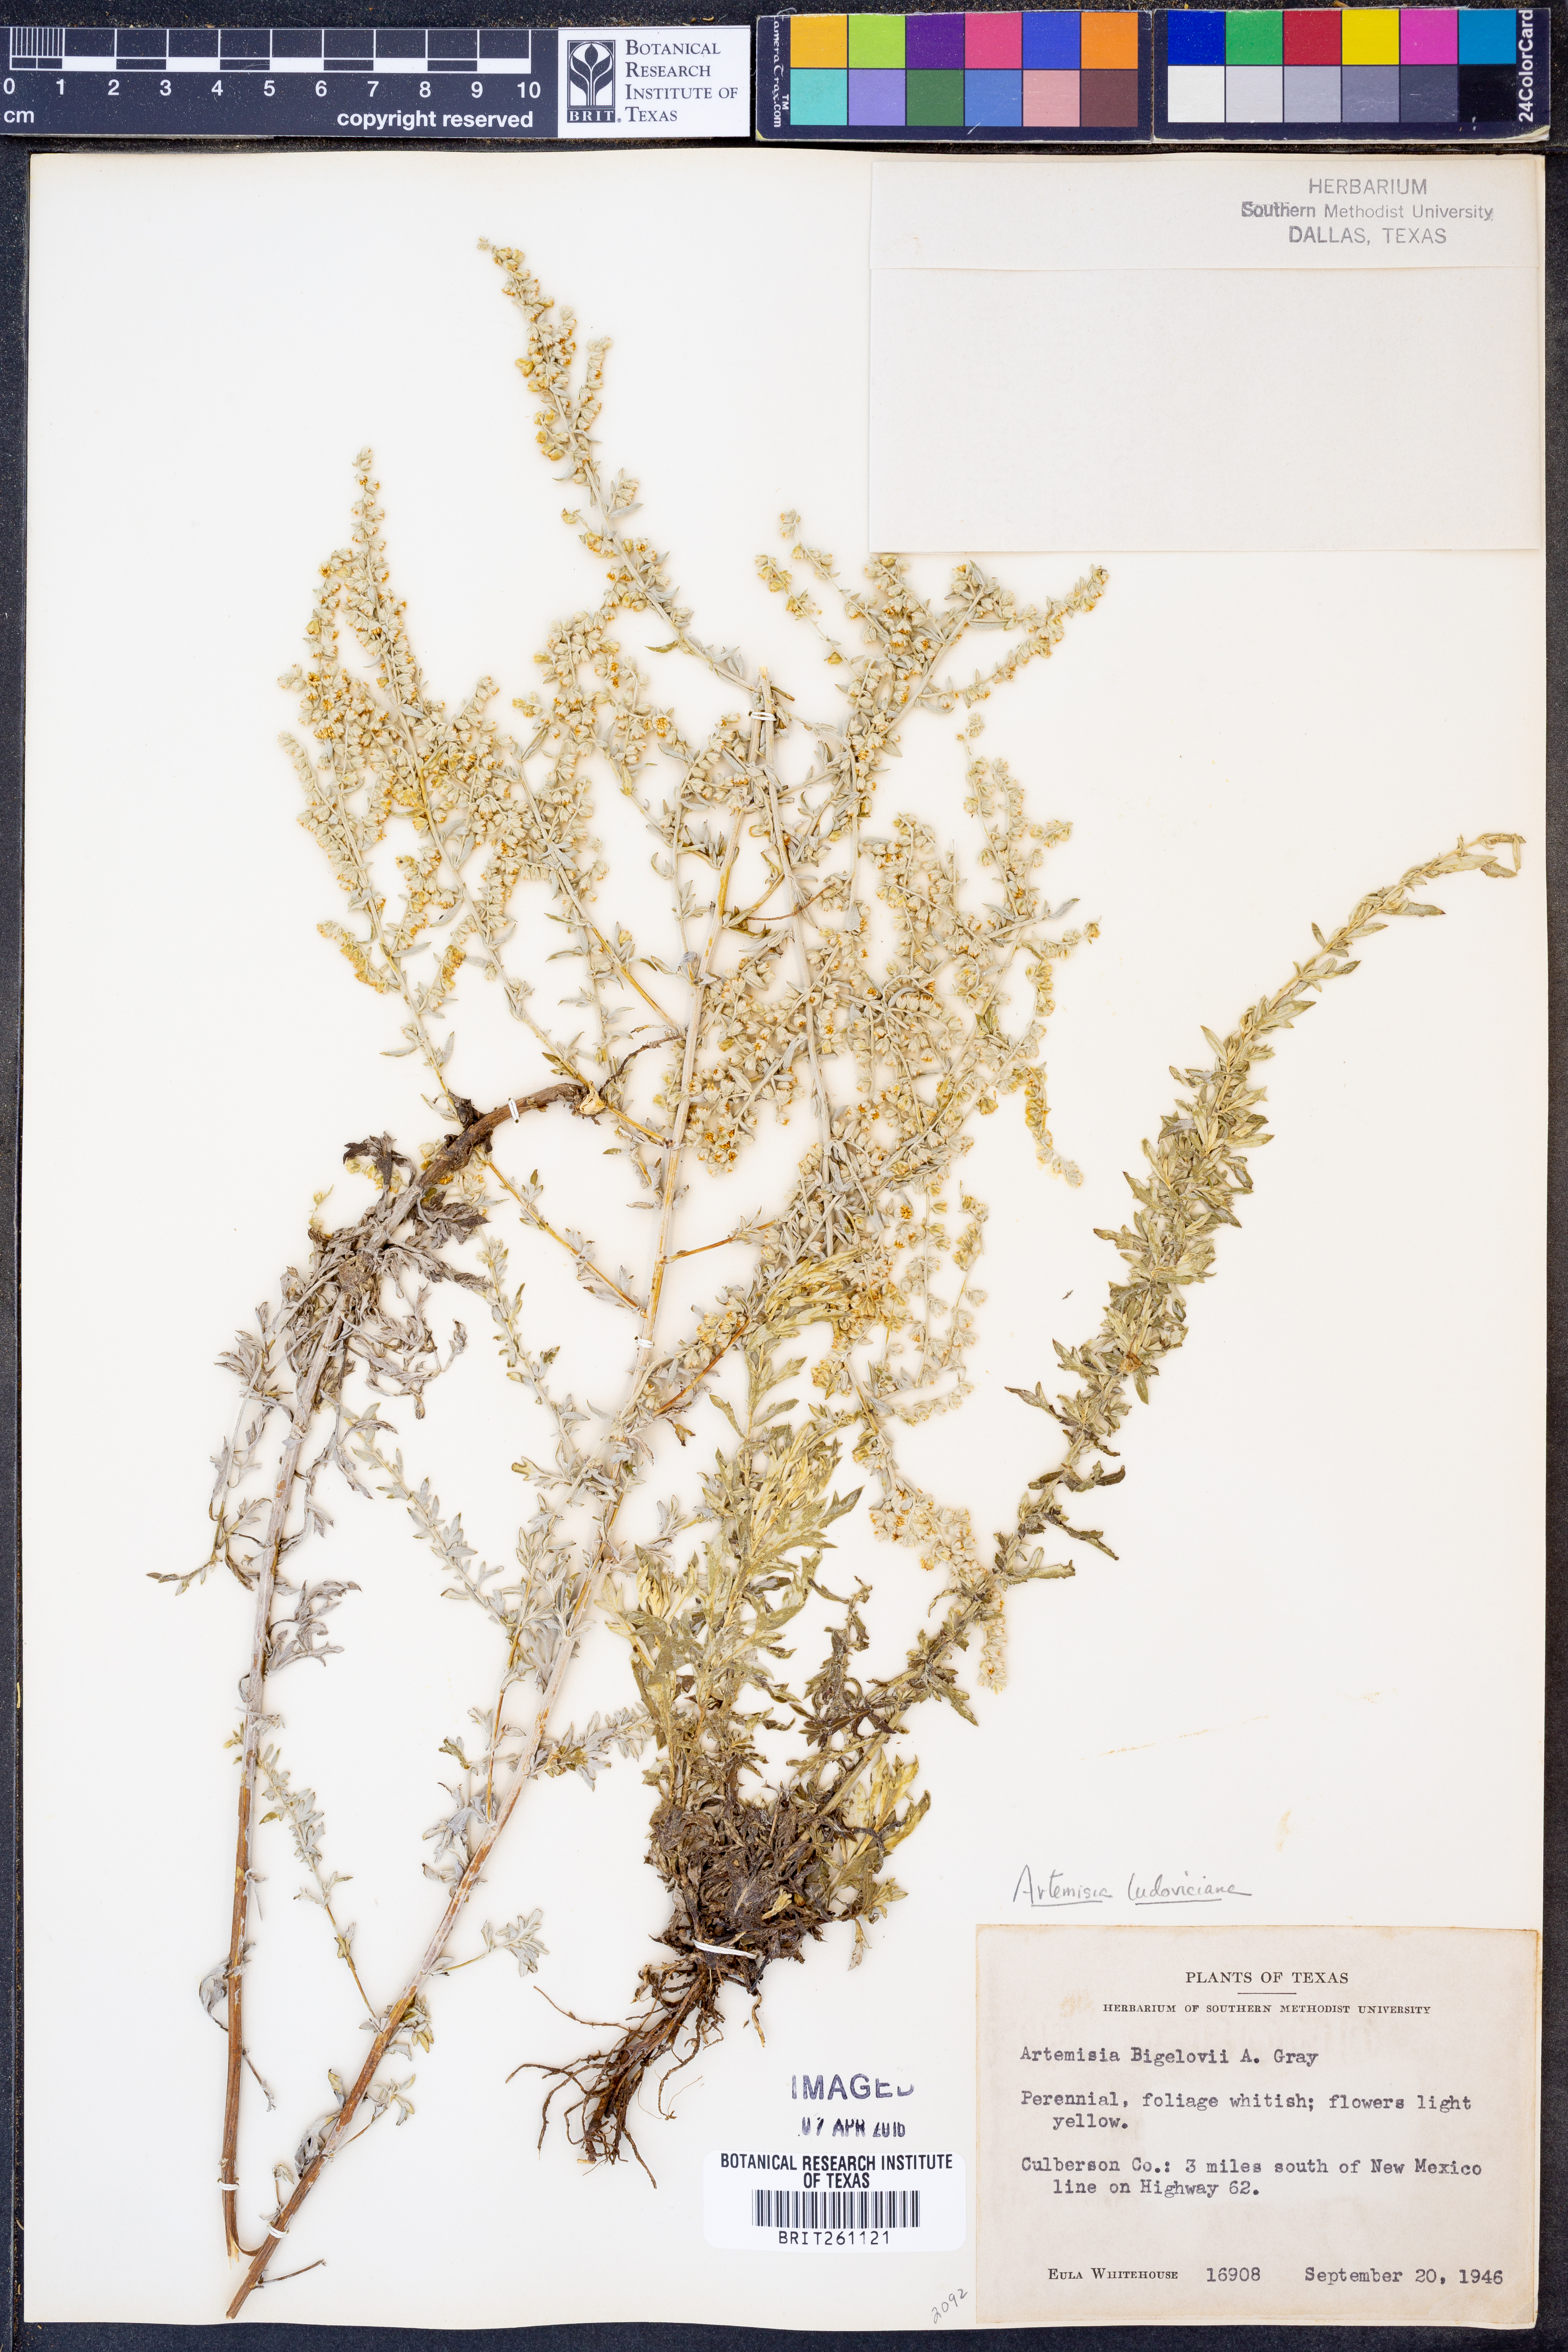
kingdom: Plantae
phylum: Tracheophyta
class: Magnoliopsida
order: Asterales
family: Asteraceae
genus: Artemisia
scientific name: Artemisia ludoviciana
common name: Western mugwort
